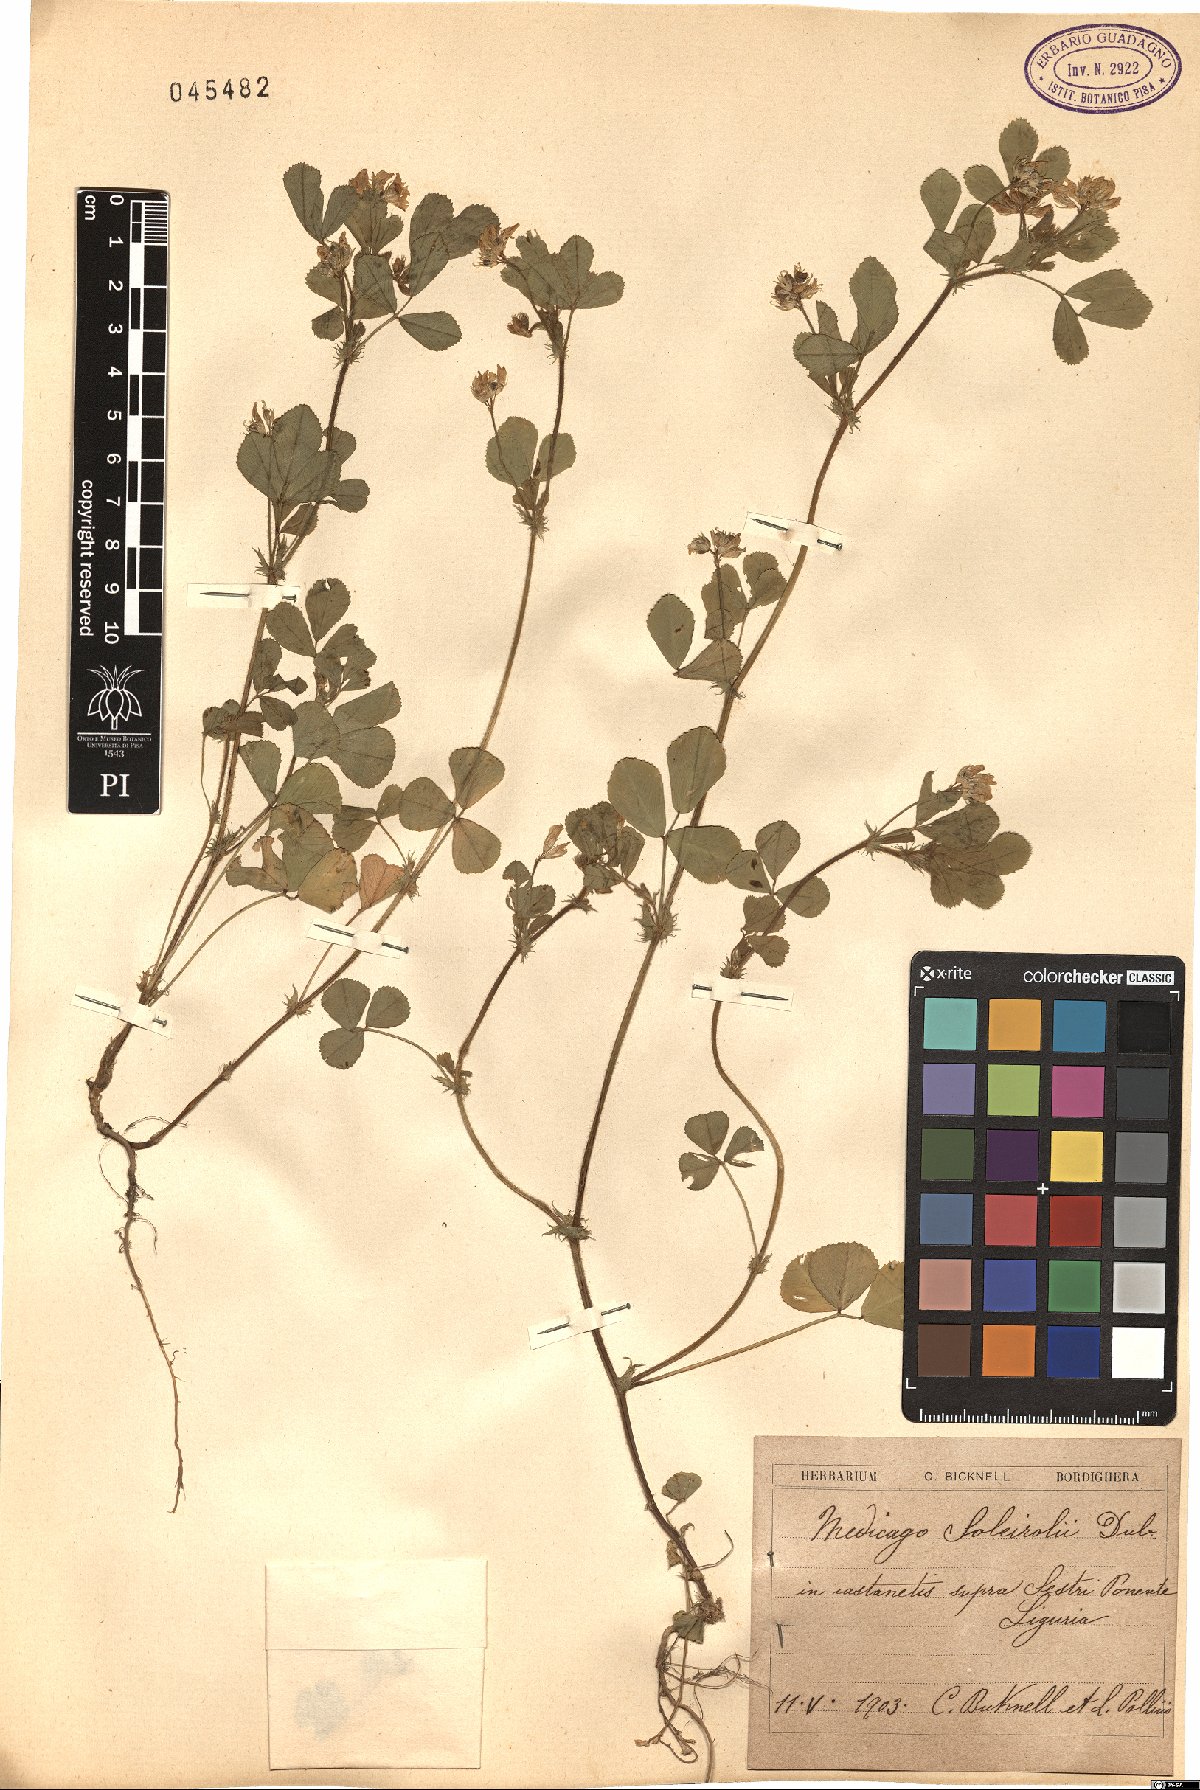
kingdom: Plantae
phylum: Tracheophyta
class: Magnoliopsida
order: Fabales
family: Fabaceae
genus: Medicago
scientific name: Medicago soleirolii
